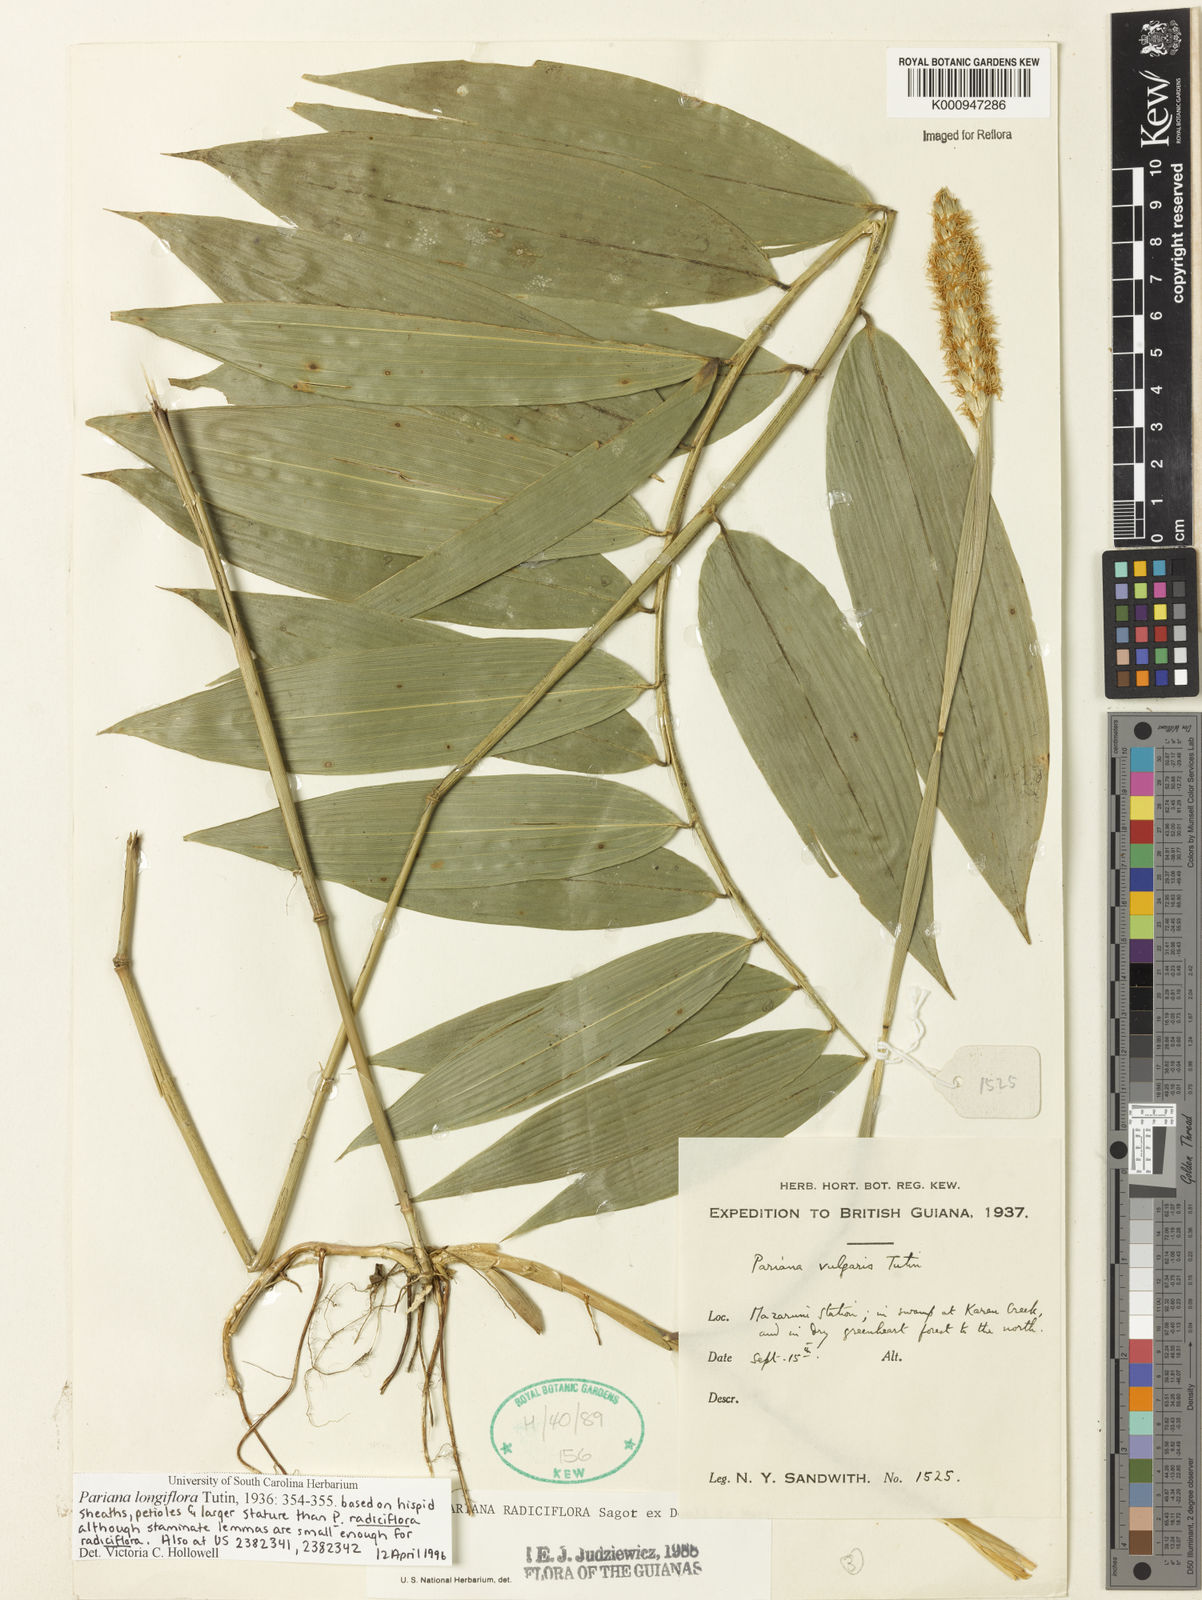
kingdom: Plantae
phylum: Tracheophyta
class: Liliopsida
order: Poales
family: Poaceae
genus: Pariana
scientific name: Pariana
